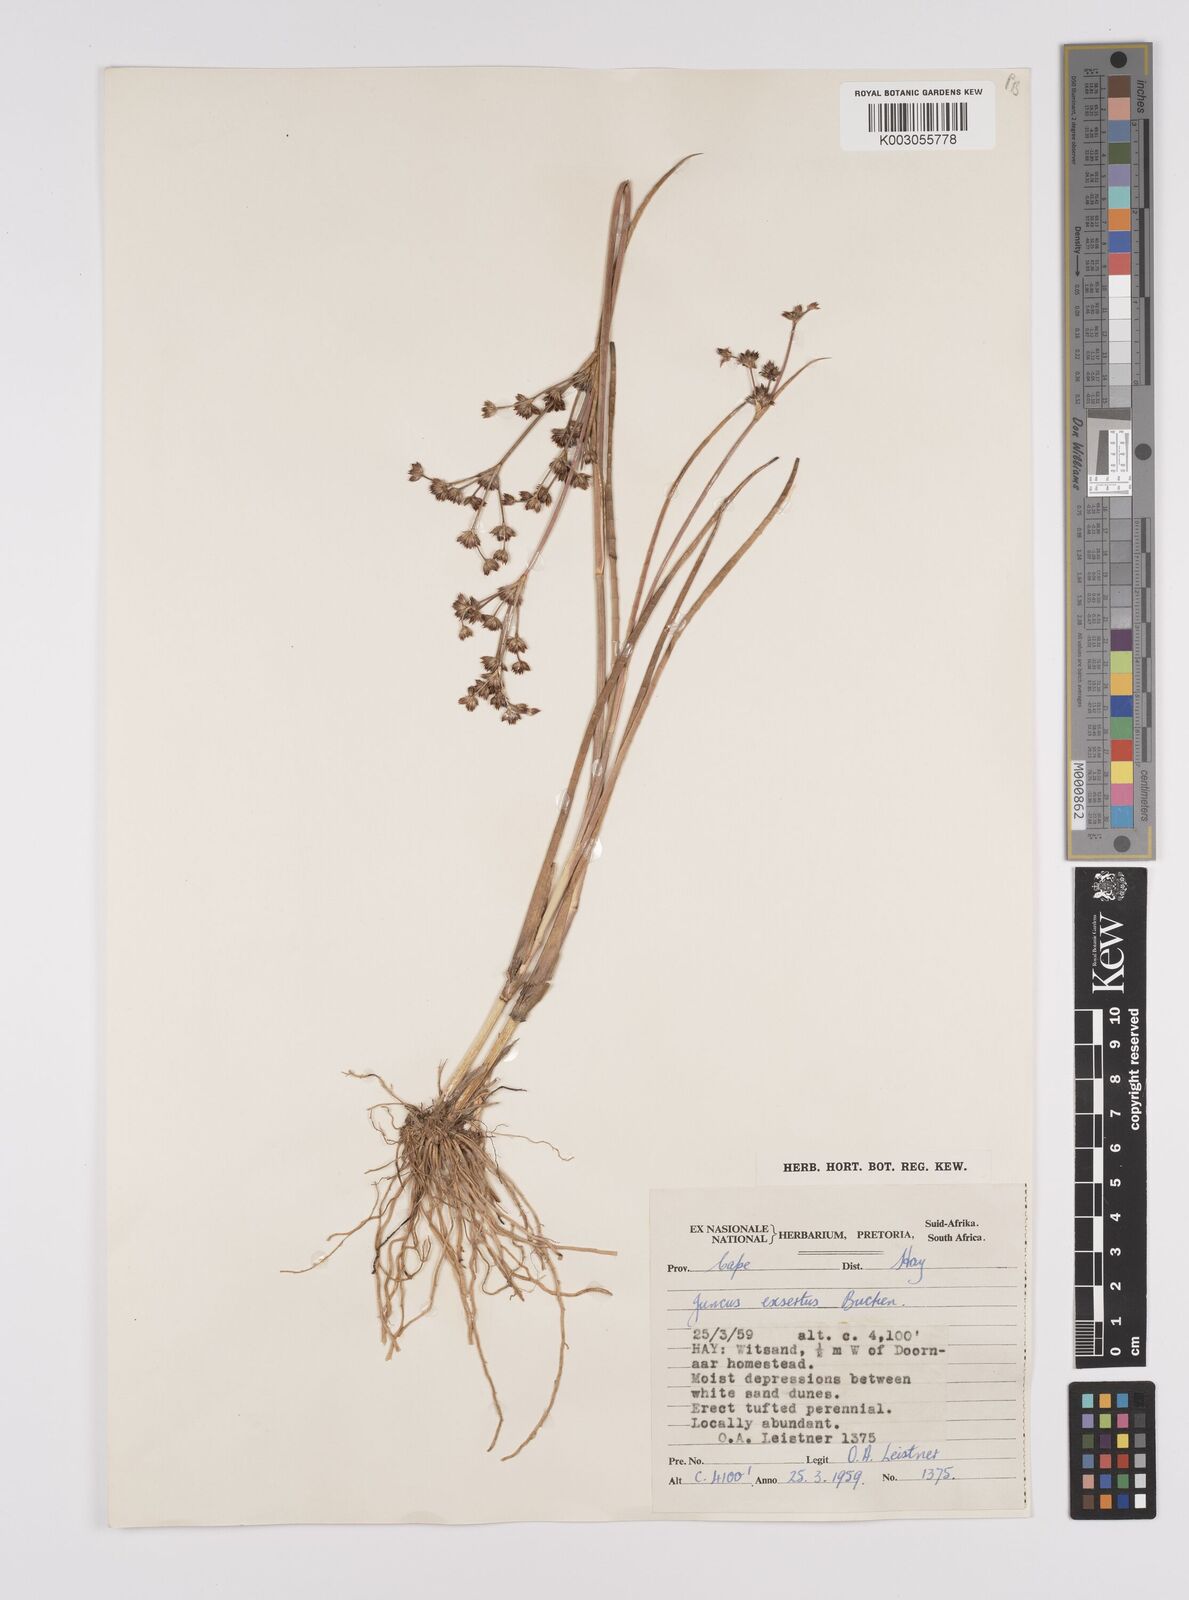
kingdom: Plantae
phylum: Tracheophyta
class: Liliopsida
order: Poales
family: Juncaceae
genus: Juncus
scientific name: Juncus exsertus
